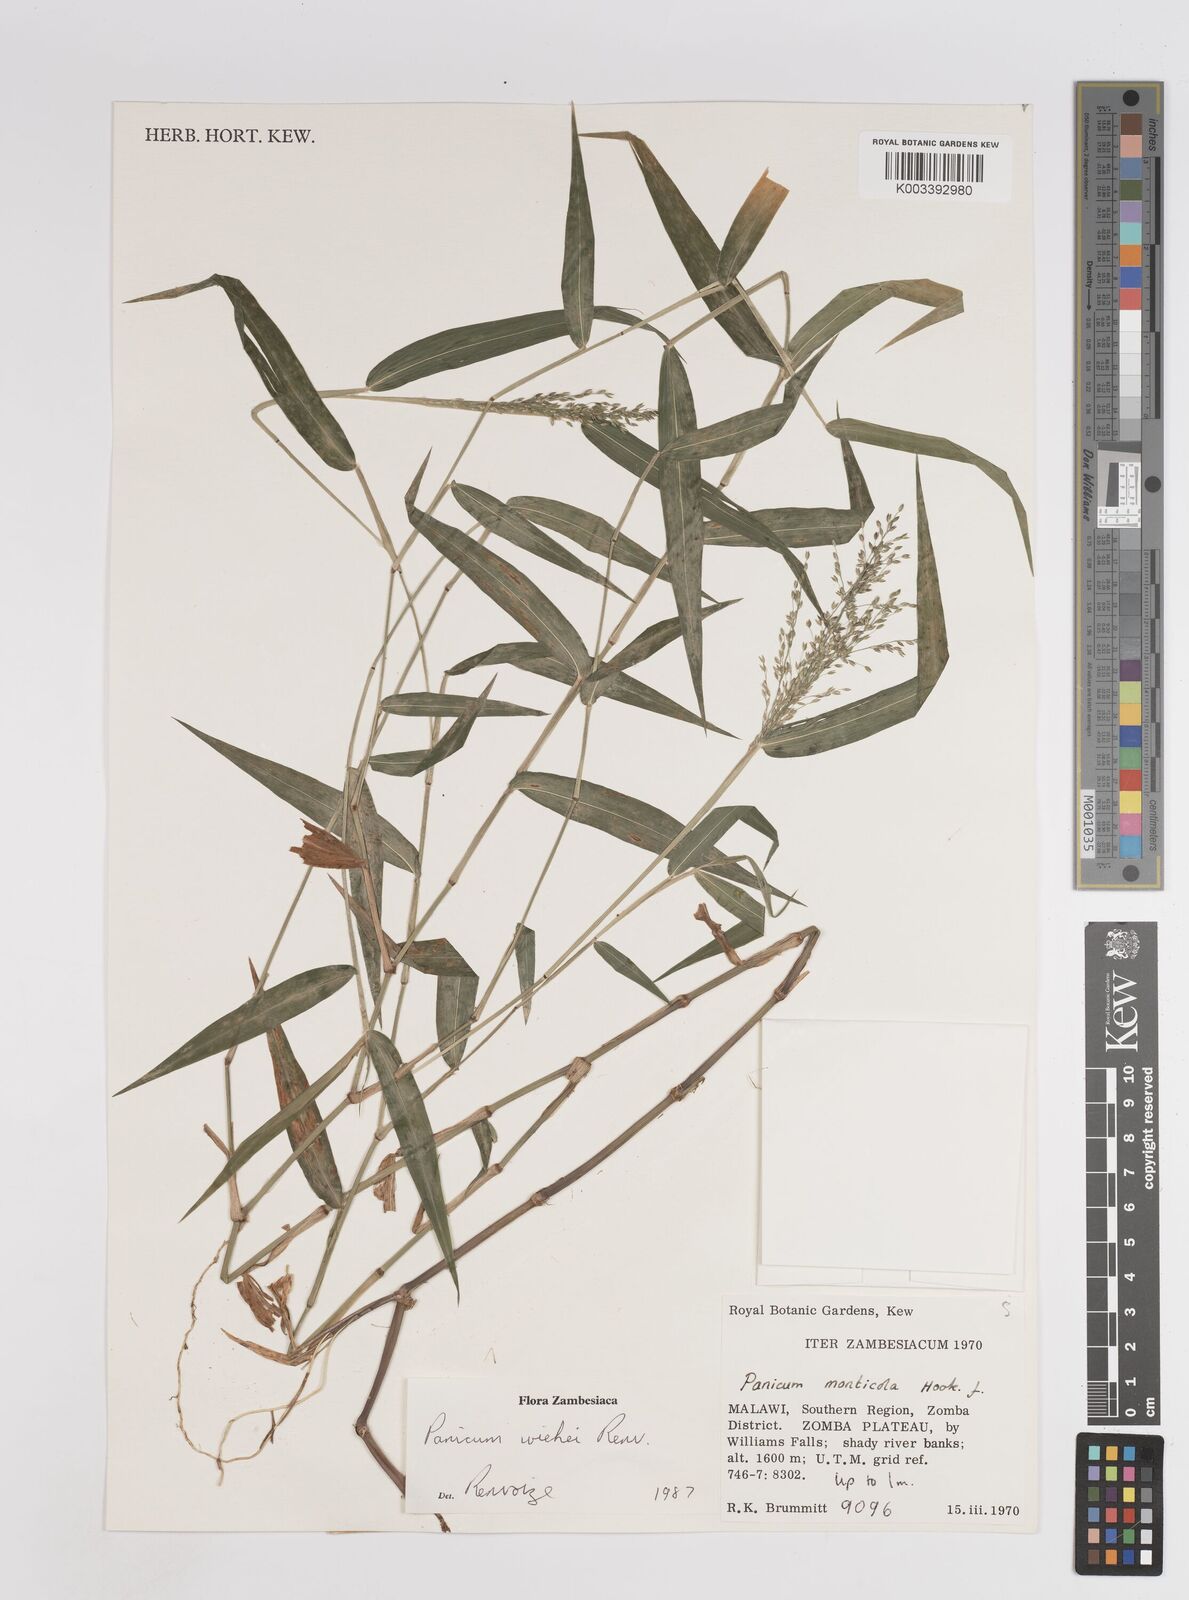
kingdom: Plantae
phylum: Tracheophyta
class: Liliopsida
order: Poales
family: Poaceae
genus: Panicum
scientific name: Panicum wiehei
